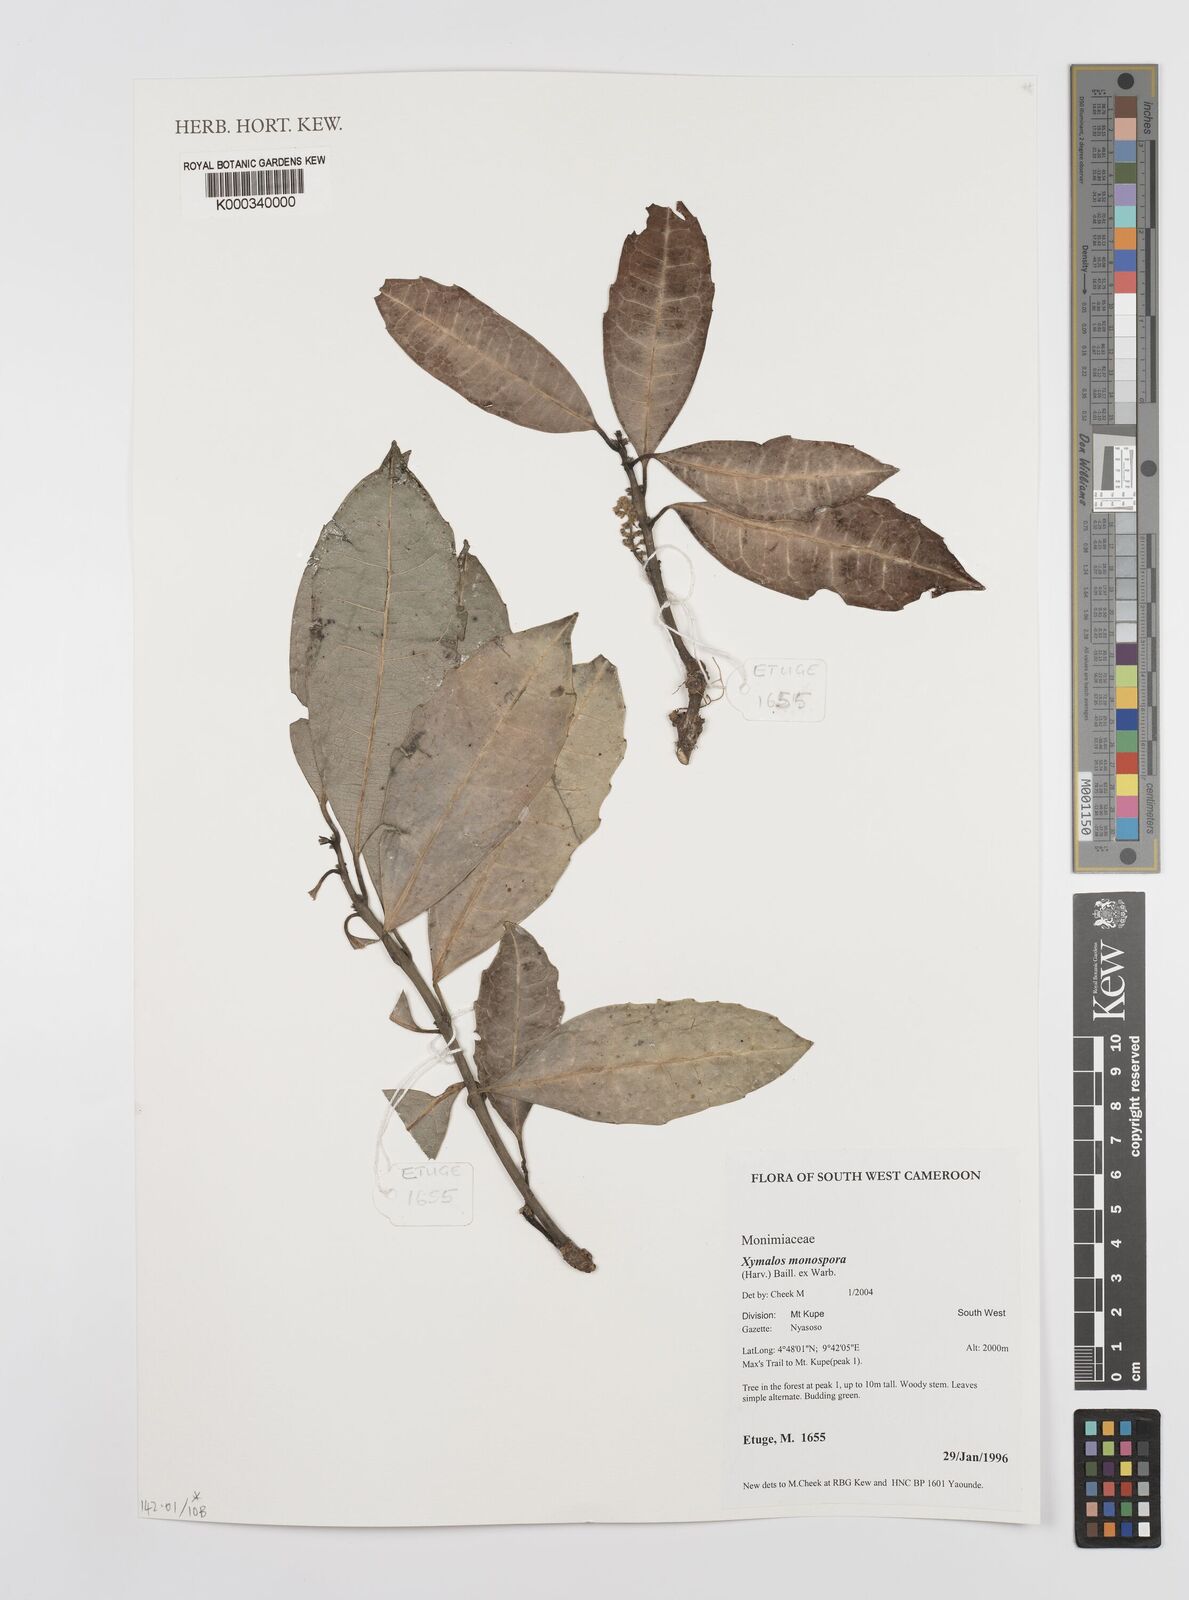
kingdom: Plantae
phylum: Tracheophyta
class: Magnoliopsida
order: Laurales
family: Monimiaceae
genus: Xymalos
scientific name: Xymalos
